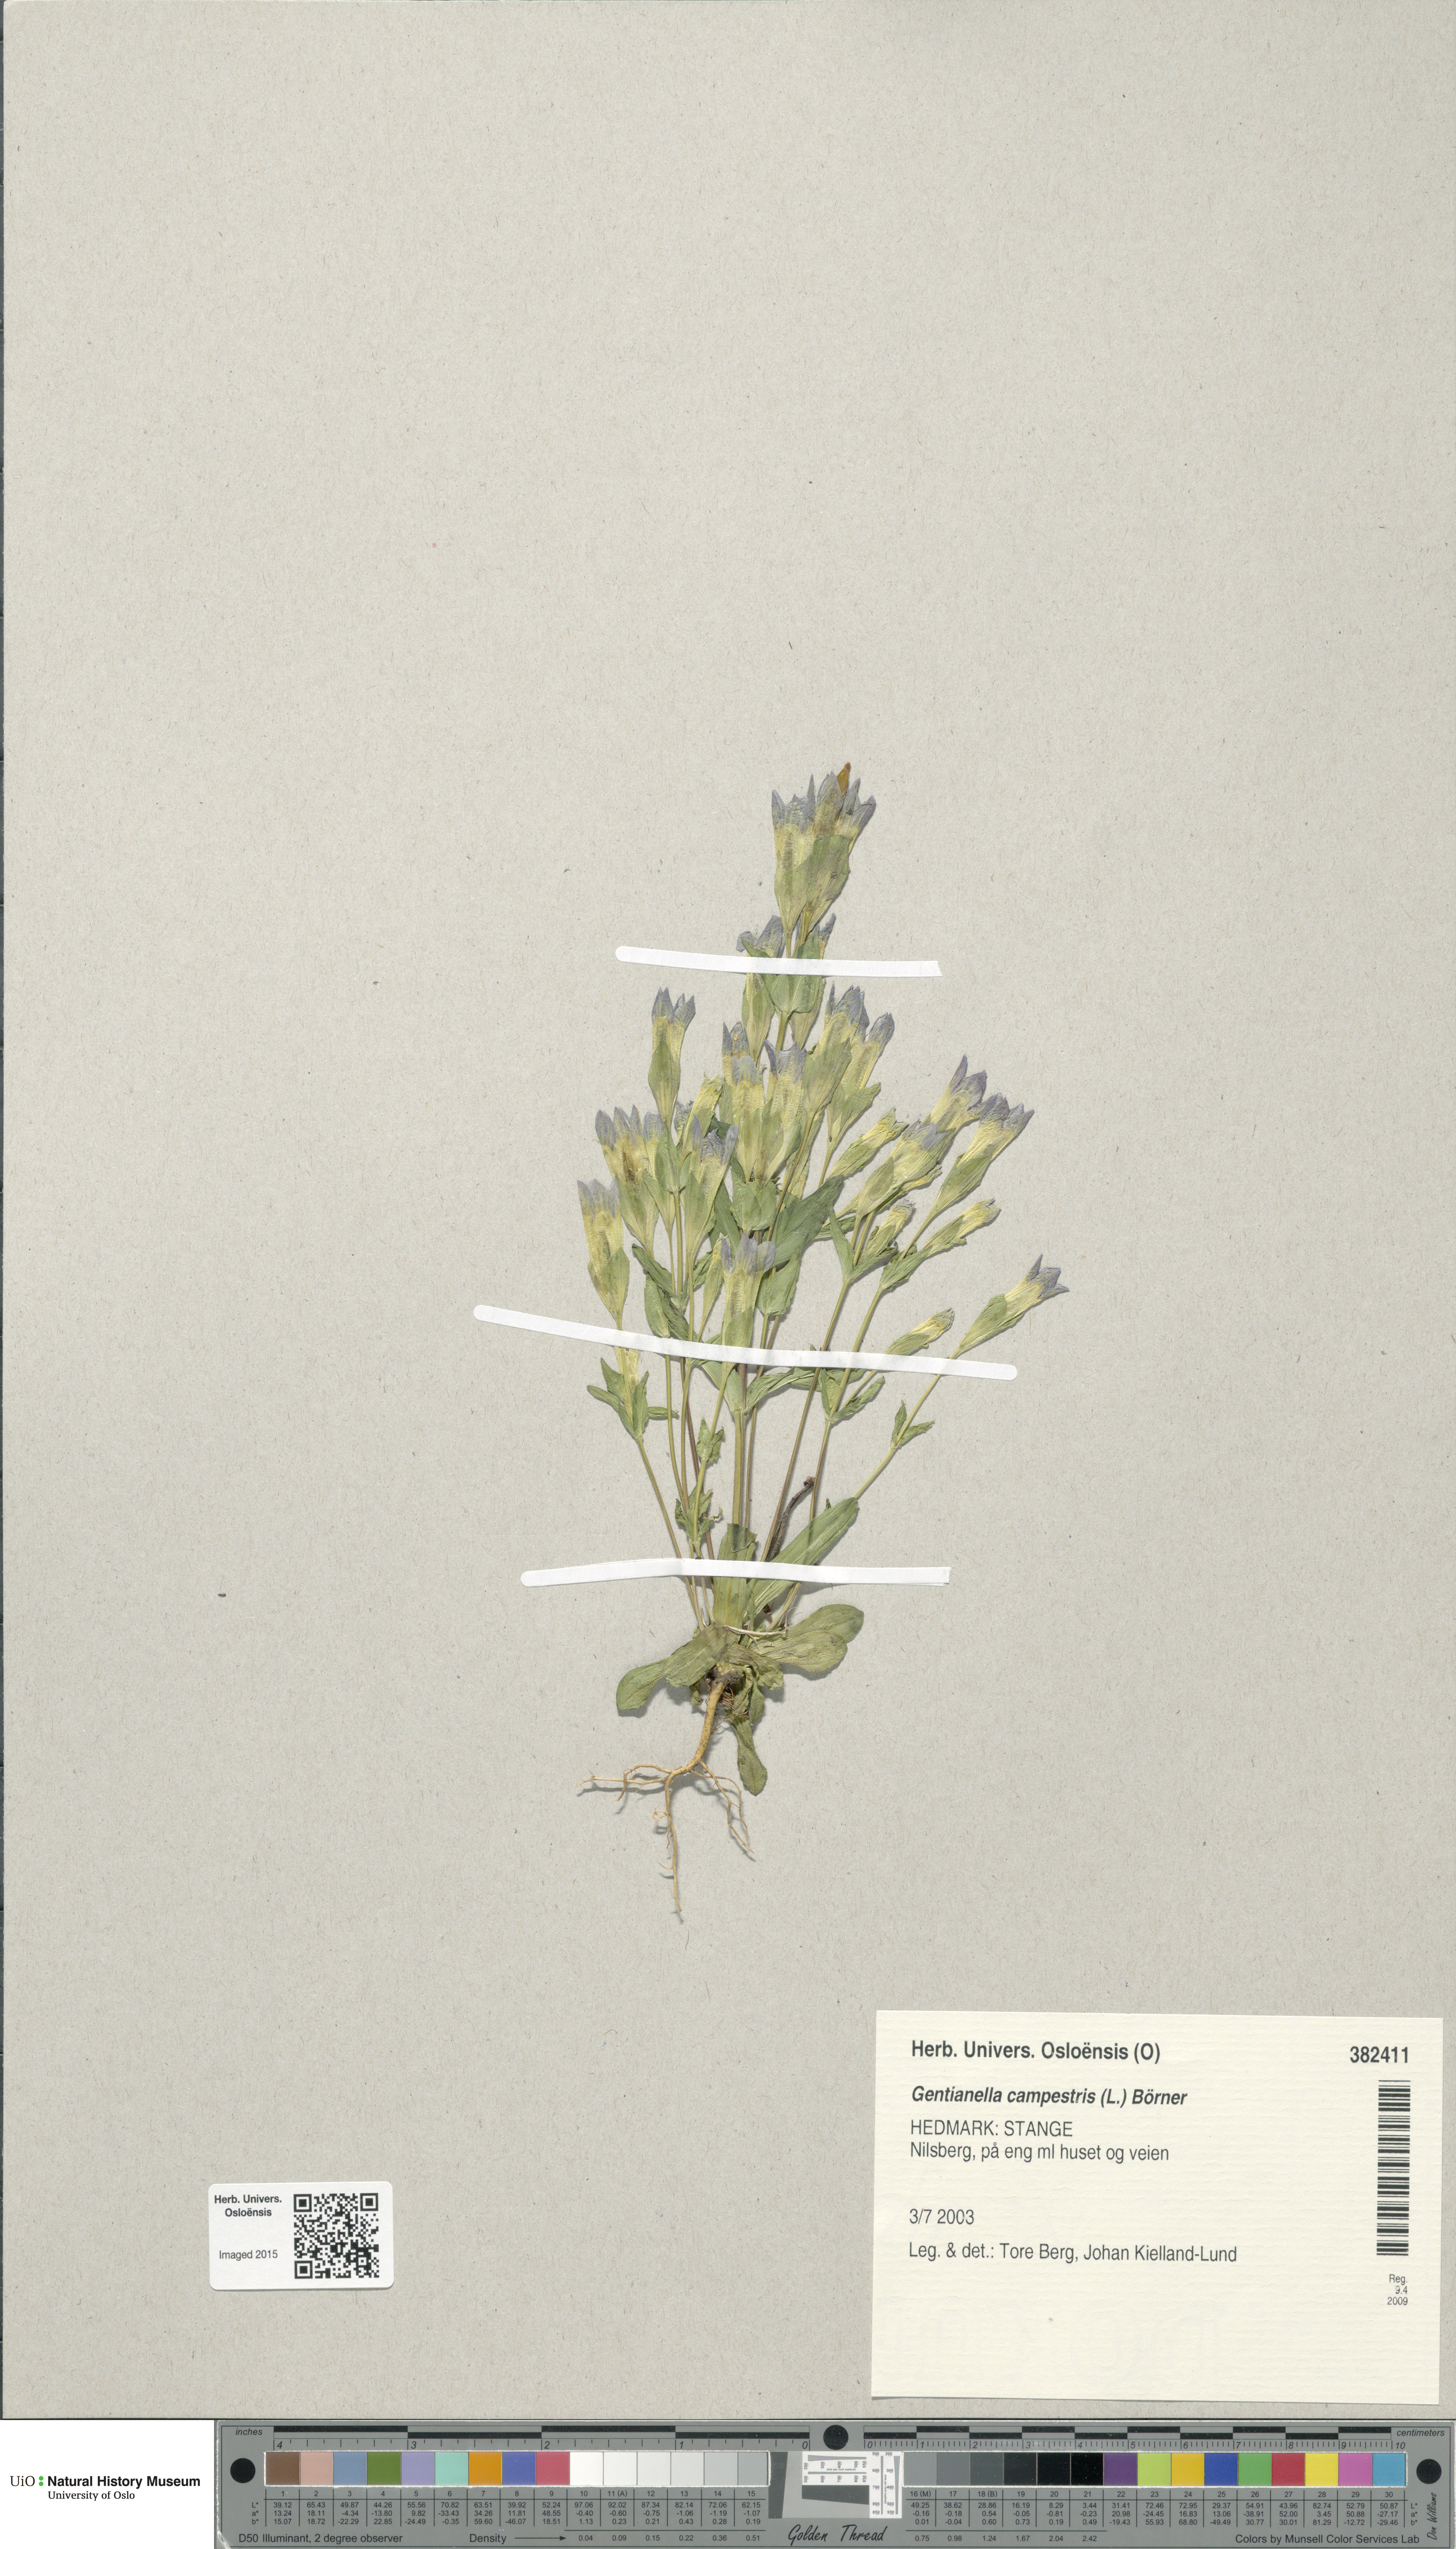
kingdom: Plantae
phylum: Tracheophyta
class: Magnoliopsida
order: Gentianales
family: Gentianaceae
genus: Gentianella
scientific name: Gentianella campestris
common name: Field gentian
